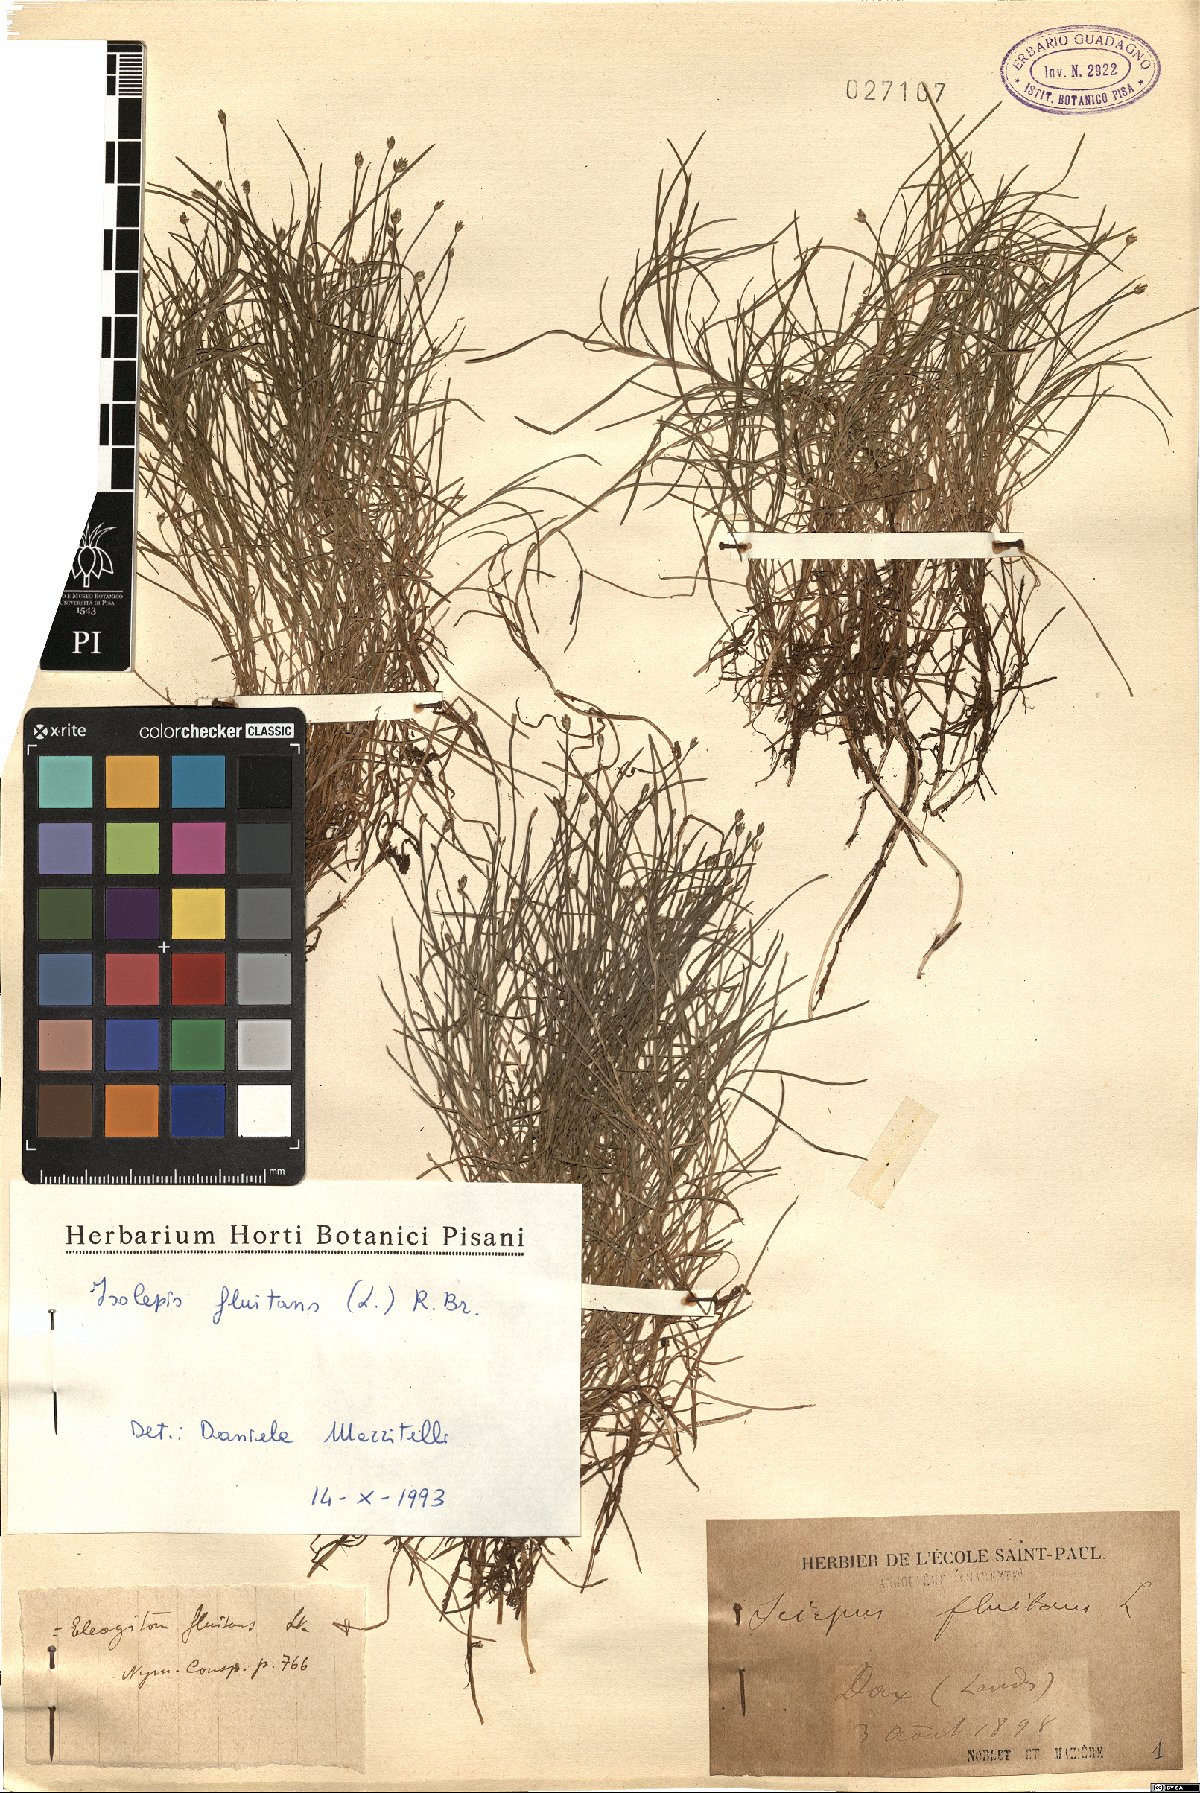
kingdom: Plantae
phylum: Tracheophyta
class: Liliopsida
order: Poales
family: Cyperaceae
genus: Isolepis
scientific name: Isolepis fluitans
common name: Floating club-rush
